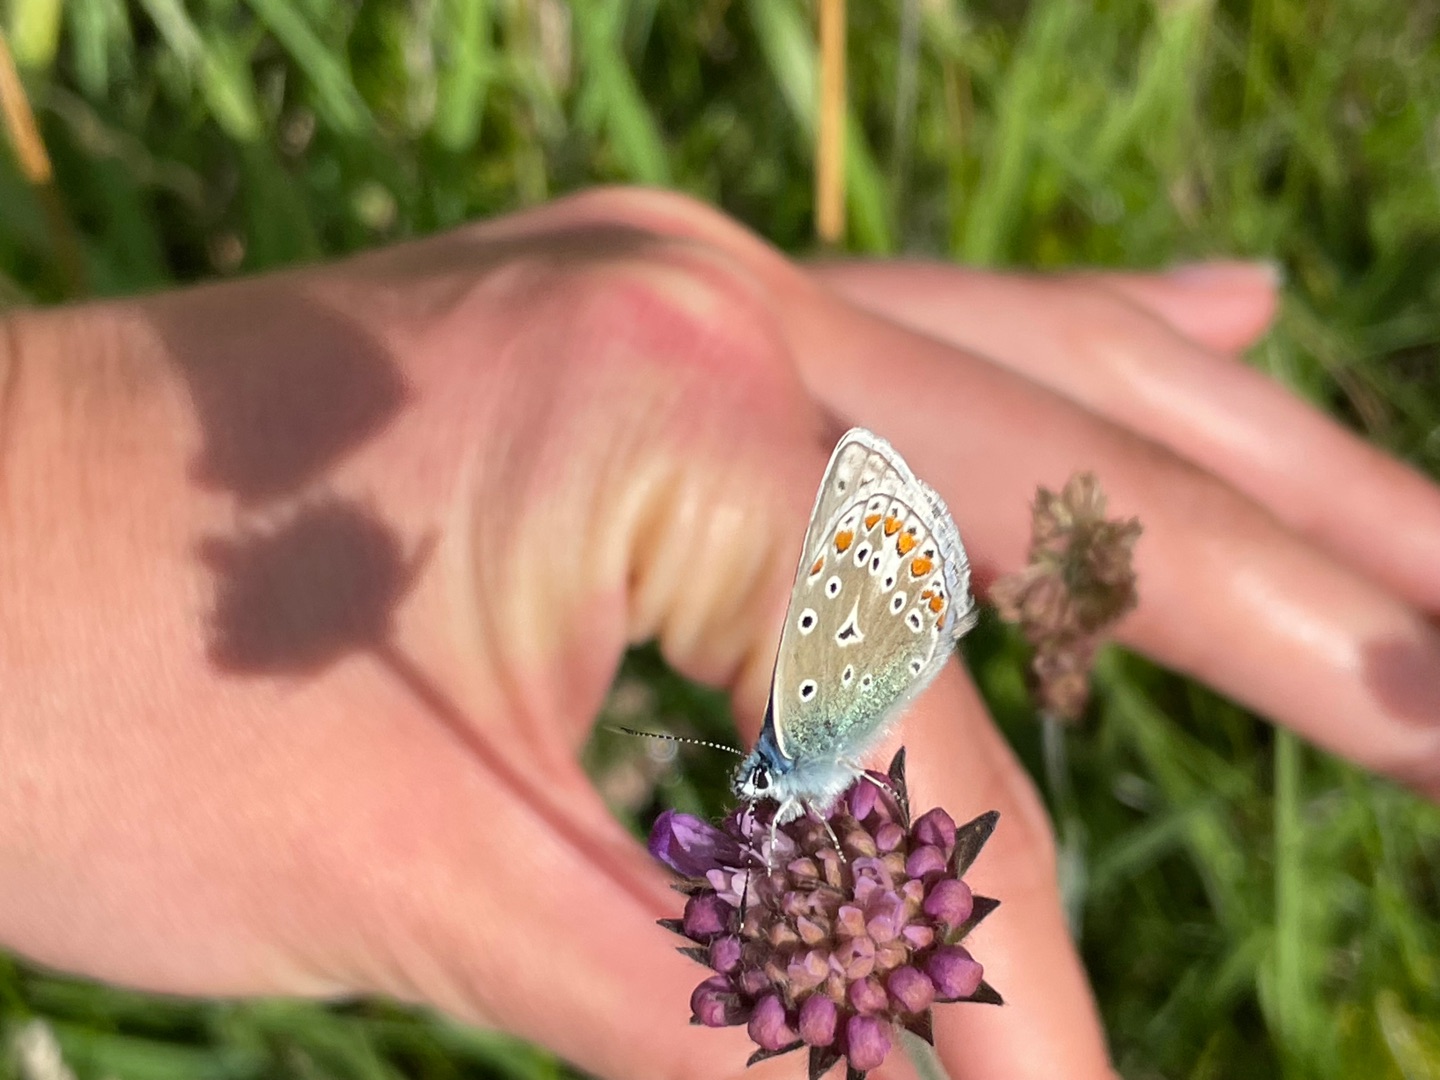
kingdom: Animalia
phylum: Arthropoda
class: Insecta
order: Lepidoptera
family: Lycaenidae
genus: Polyommatus
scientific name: Polyommatus icarus
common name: Almindelig blåfugl
